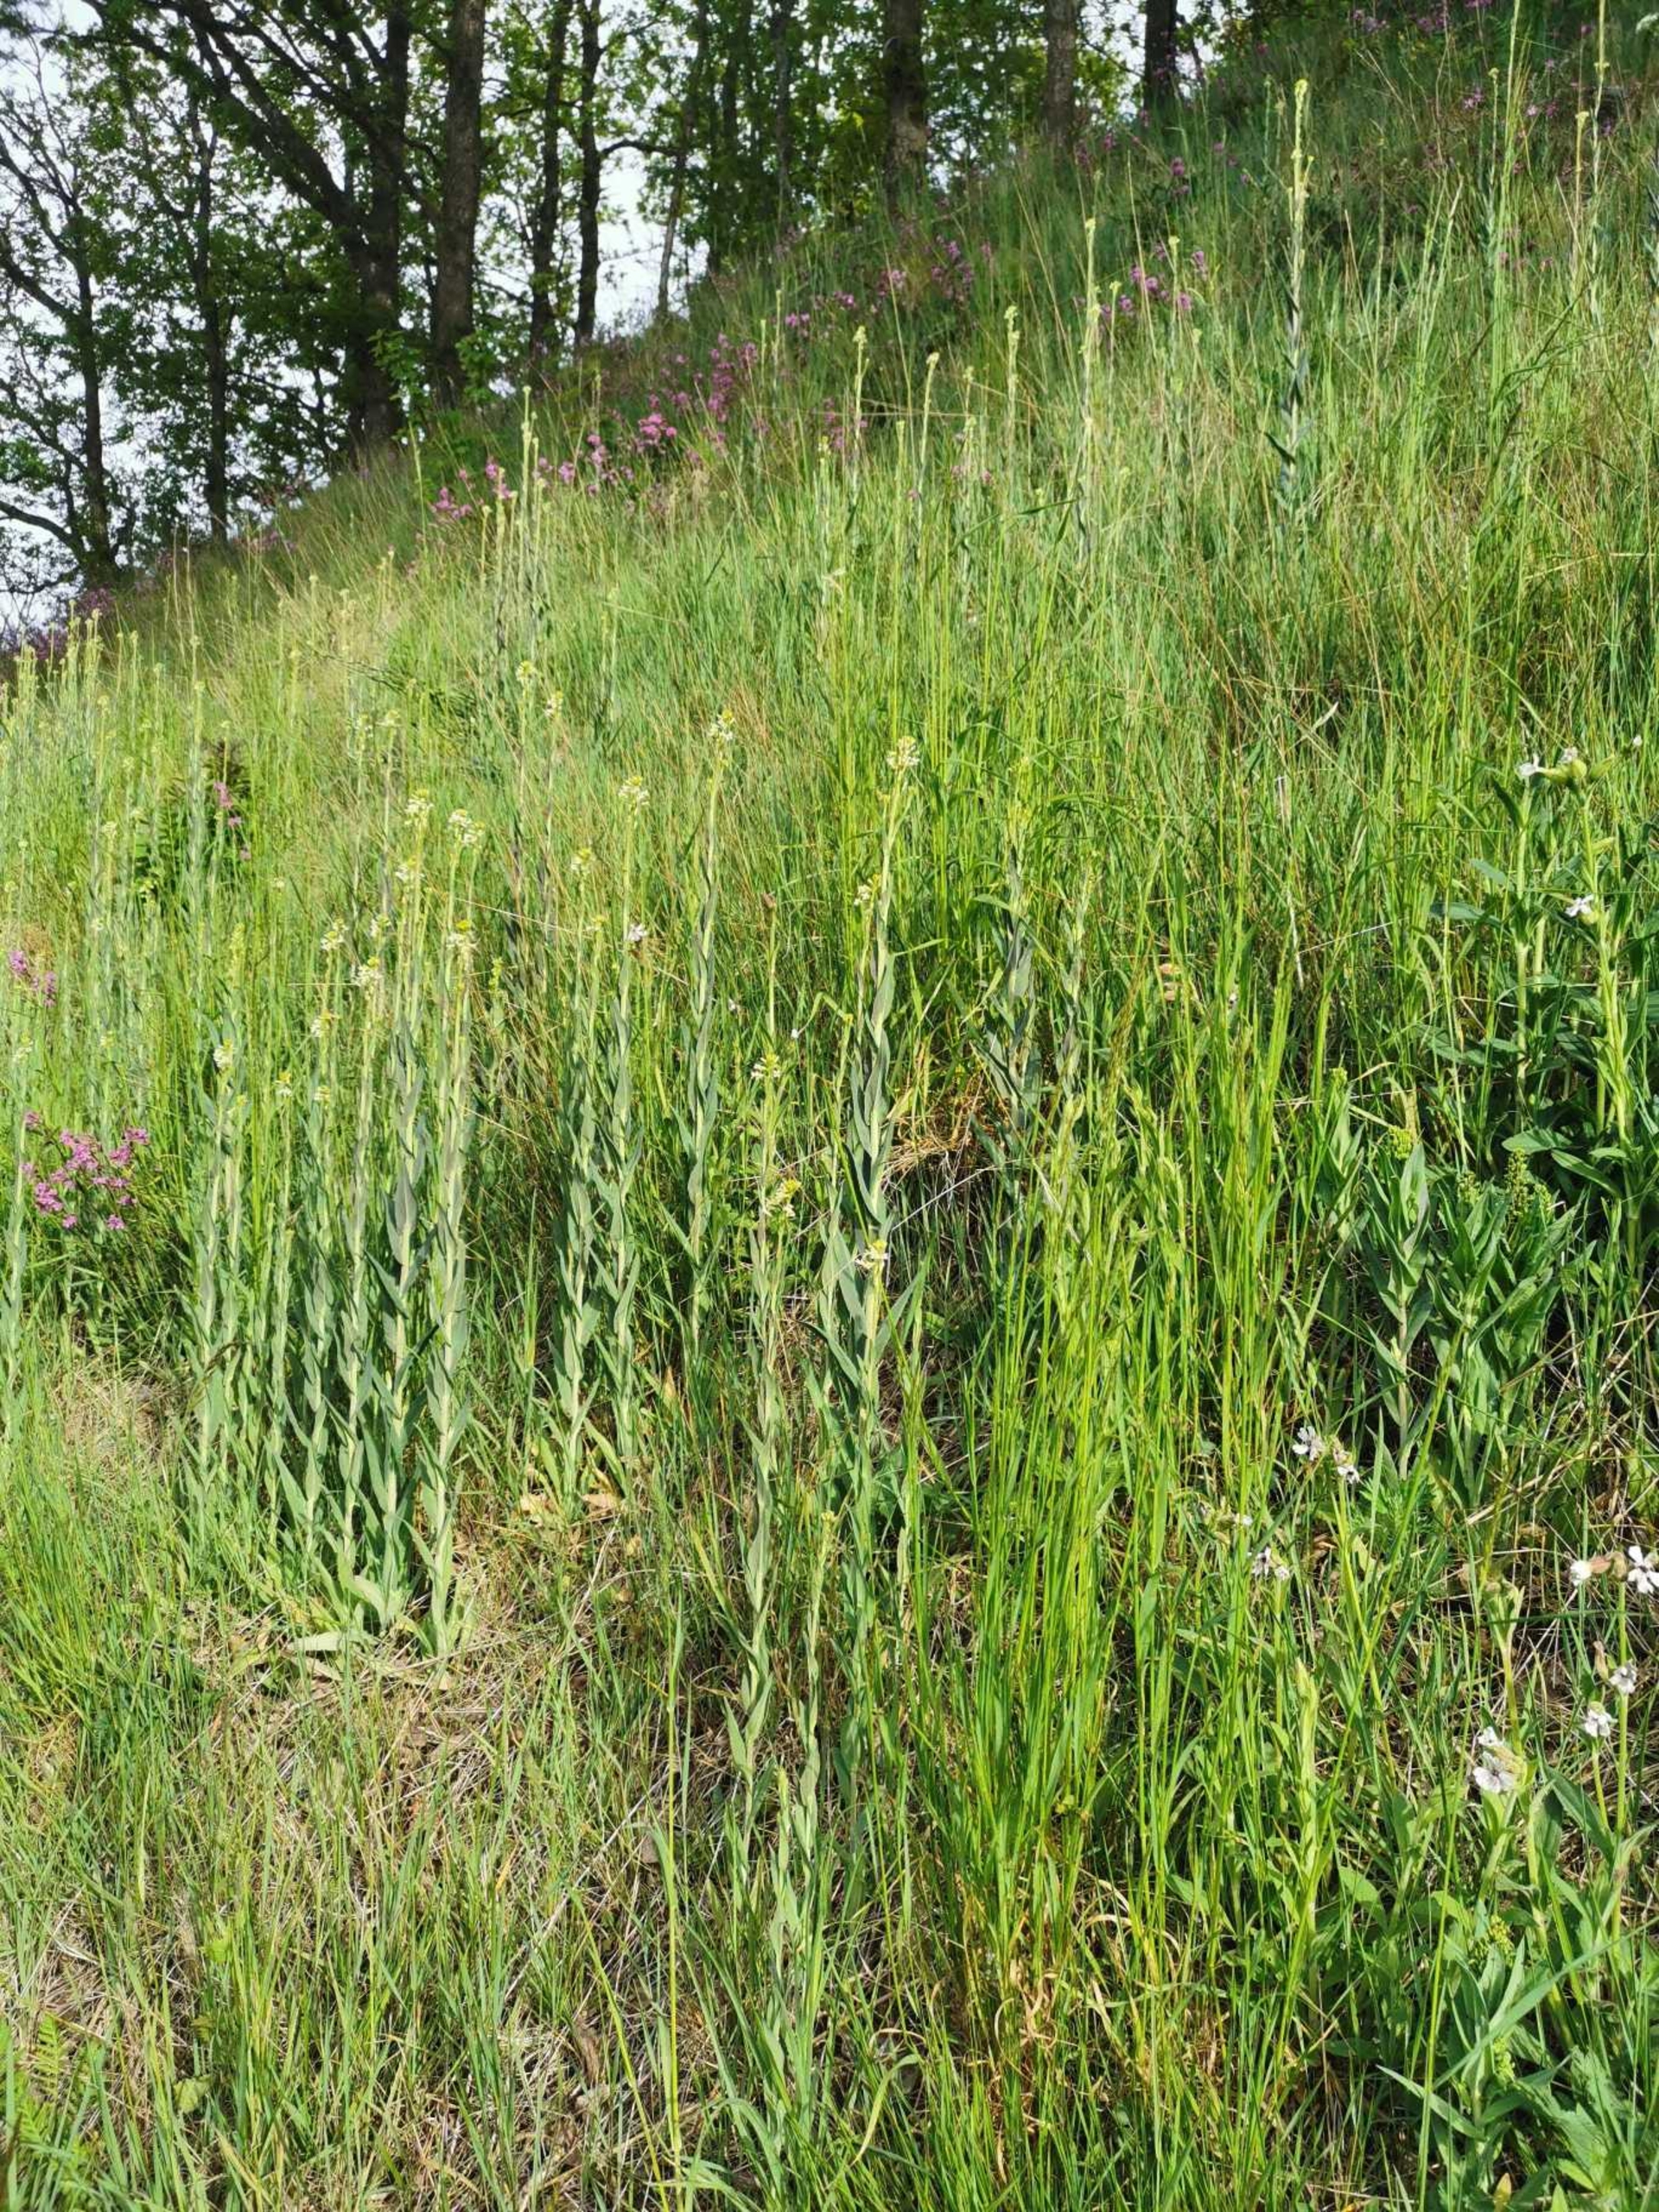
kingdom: Plantae
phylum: Tracheophyta
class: Magnoliopsida
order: Brassicales
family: Brassicaceae
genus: Turritis
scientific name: Turritis glabra
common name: Tårnurt
